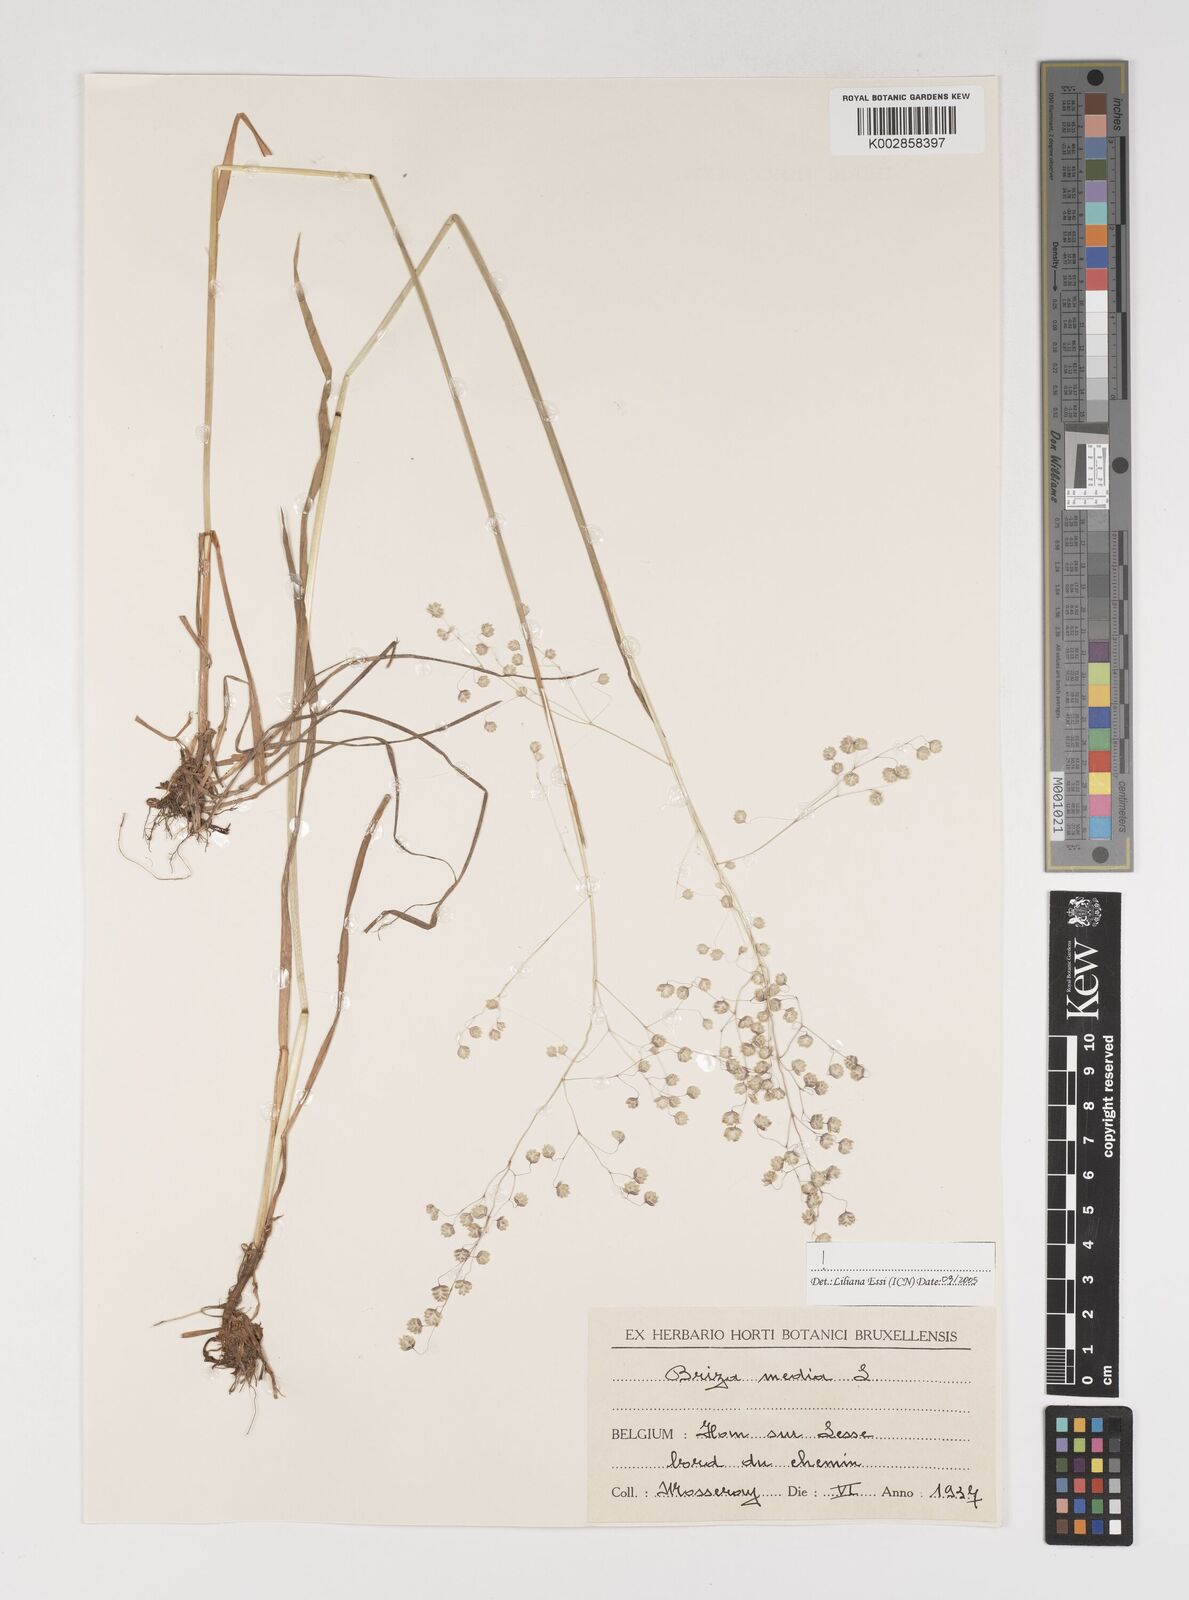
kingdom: Plantae
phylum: Tracheophyta
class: Liliopsida
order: Poales
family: Poaceae
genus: Briza
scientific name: Briza media
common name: Quaking grass
